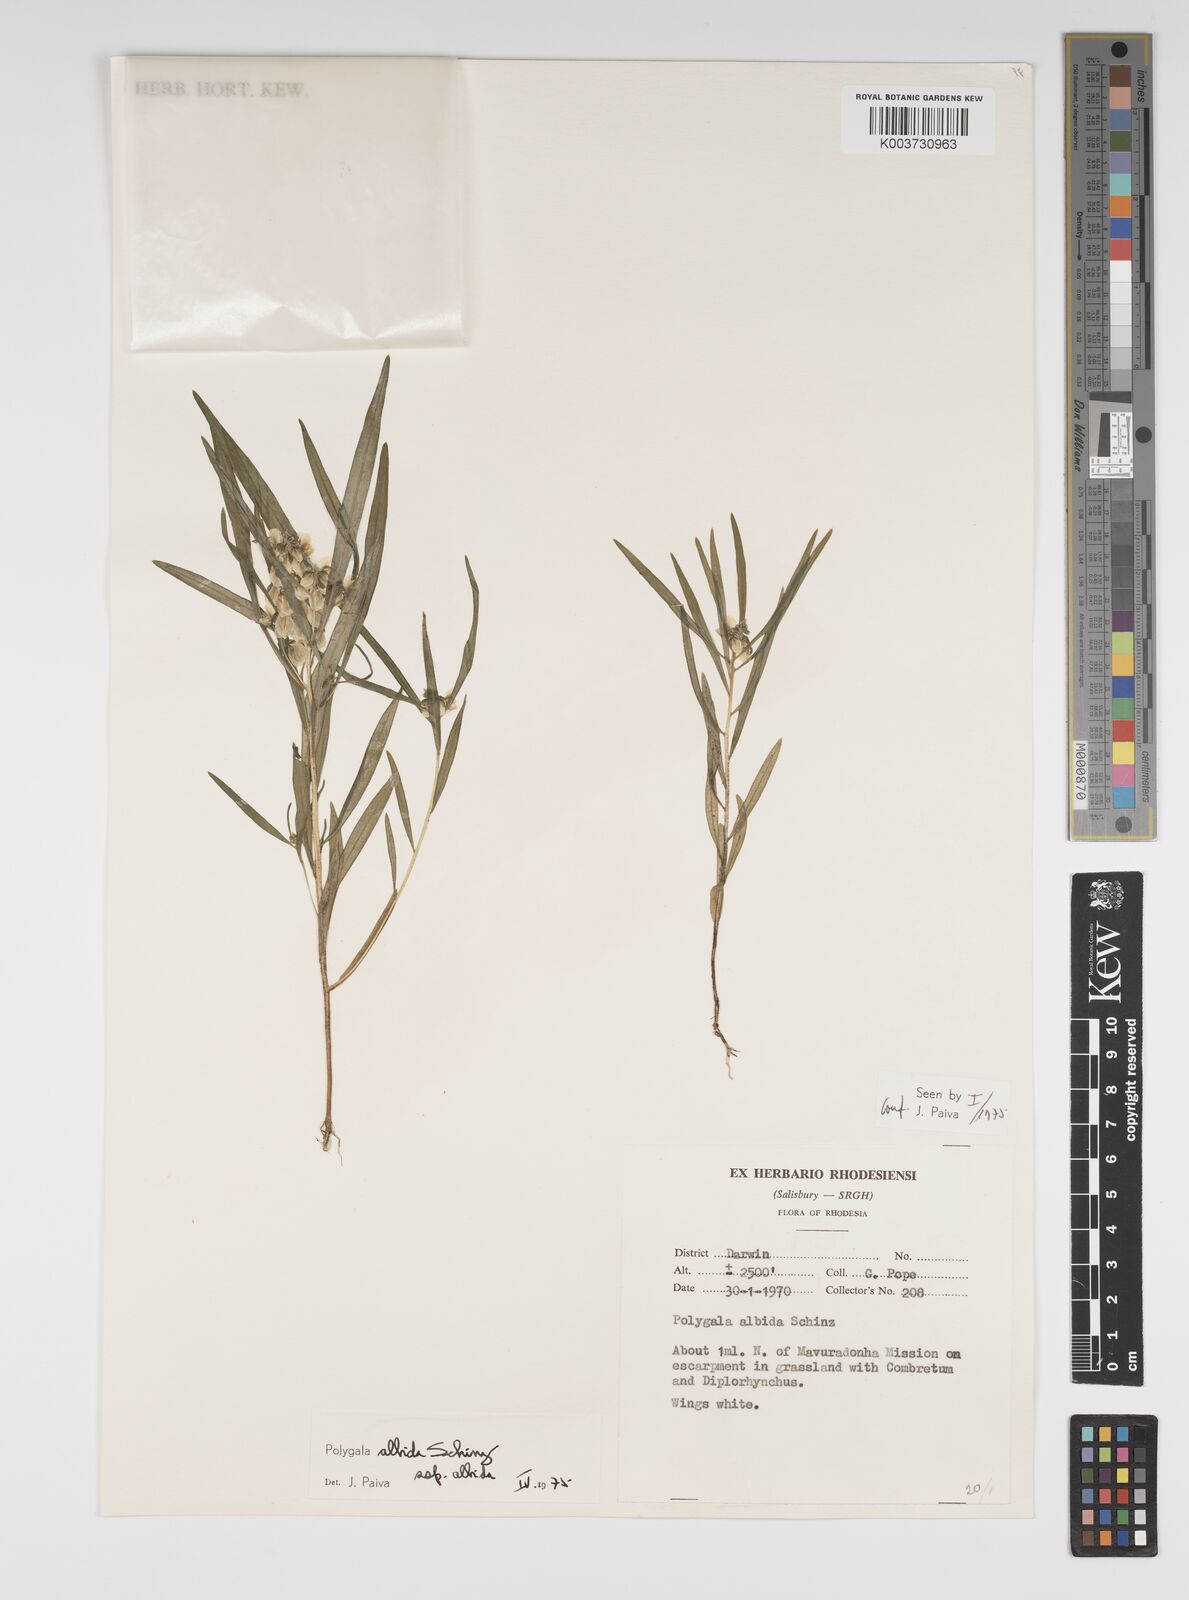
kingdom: Plantae
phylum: Tracheophyta
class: Magnoliopsida
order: Fabales
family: Polygalaceae
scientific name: Polygalaceae
